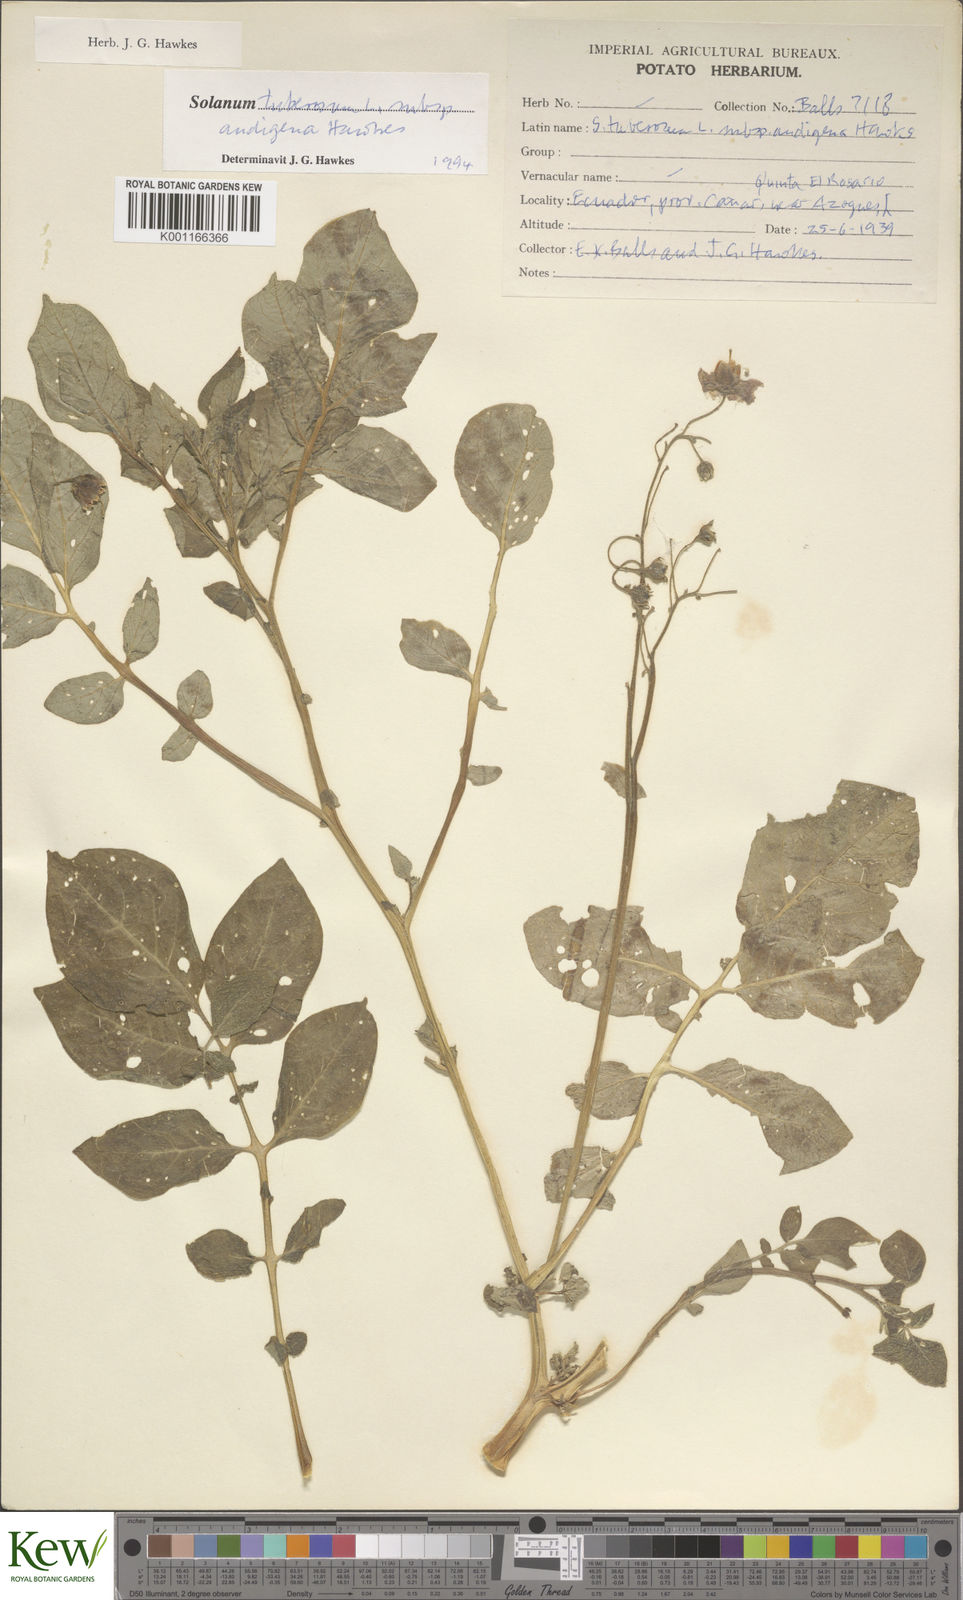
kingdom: Plantae
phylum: Tracheophyta
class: Magnoliopsida
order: Solanales
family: Solanaceae
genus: Solanum
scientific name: Solanum tuberosum
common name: Potato
